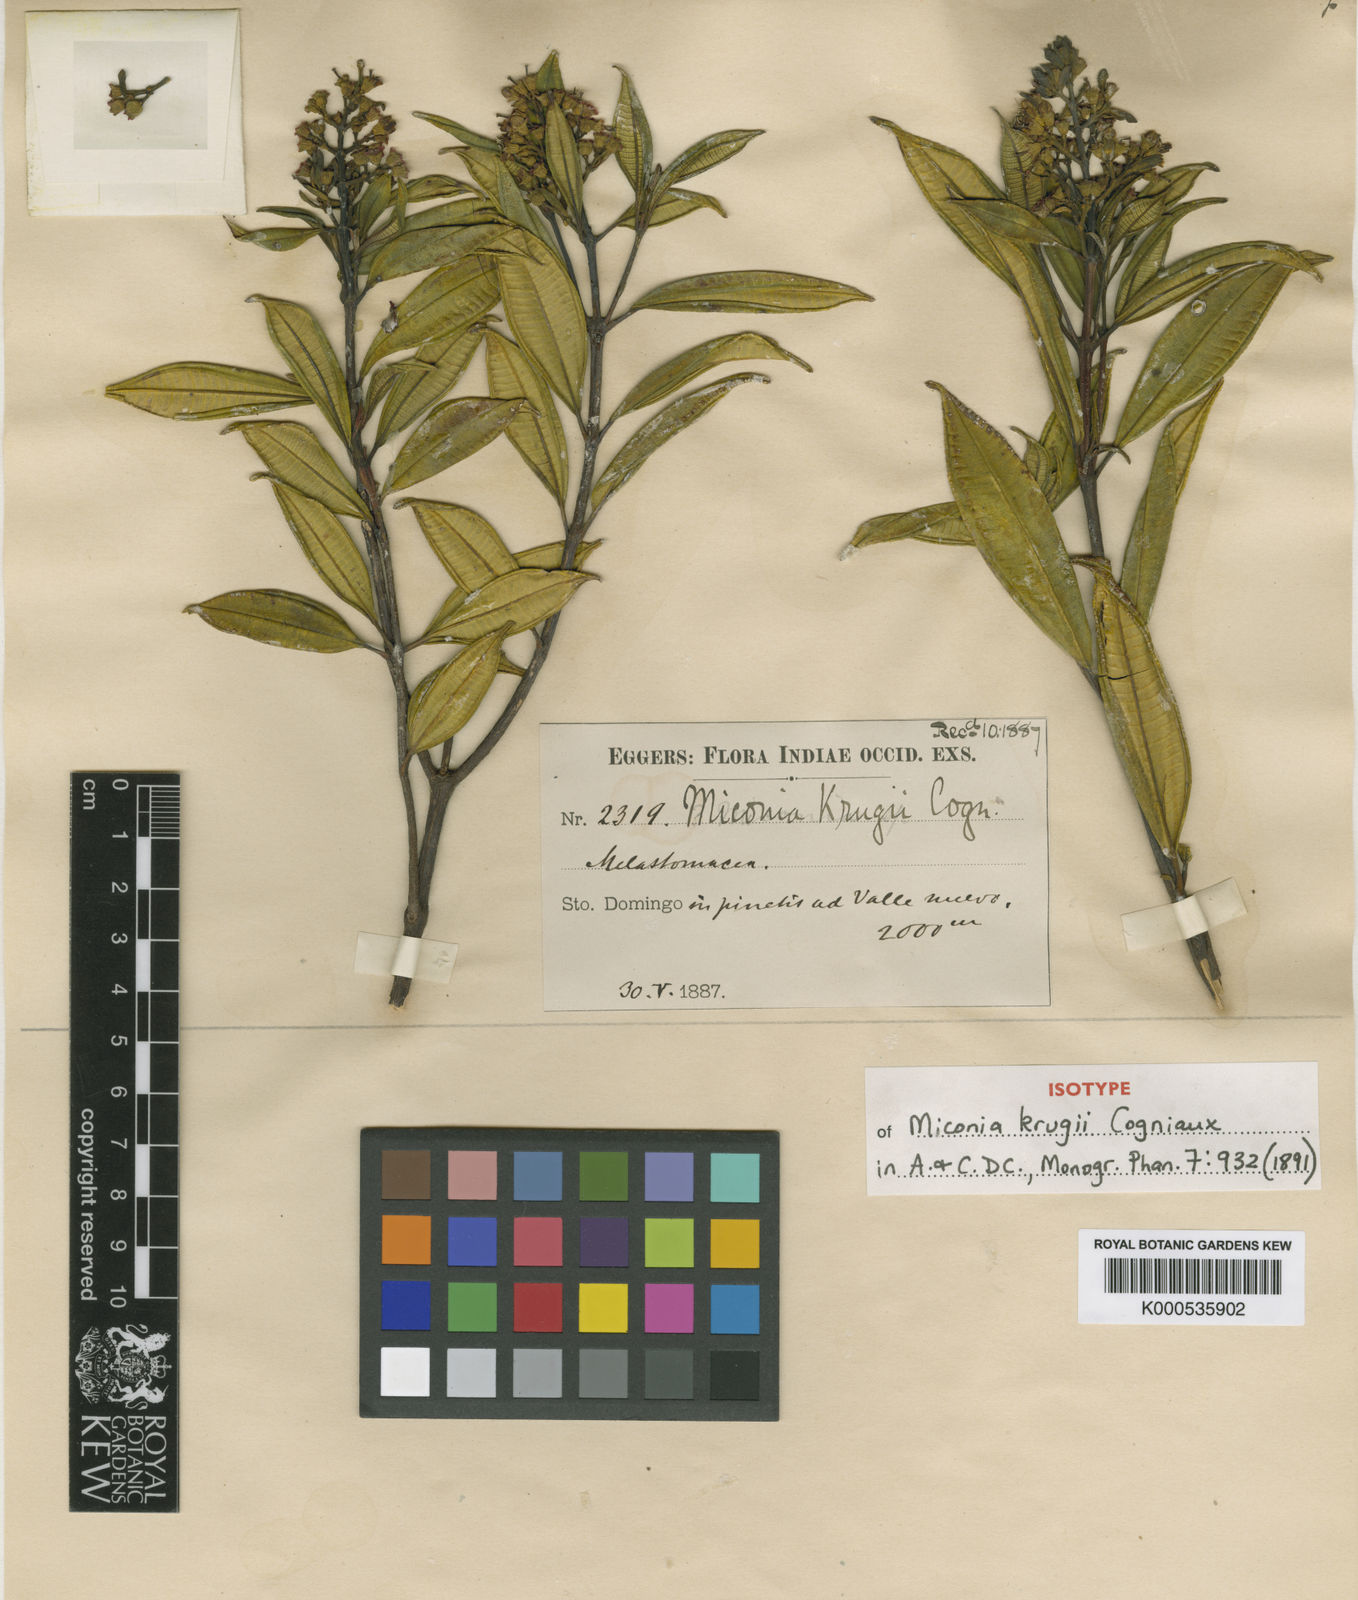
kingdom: Plantae
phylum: Tracheophyta
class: Magnoliopsida
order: Myrtales
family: Melastomataceae
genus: Miconia
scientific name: Miconia krugii
